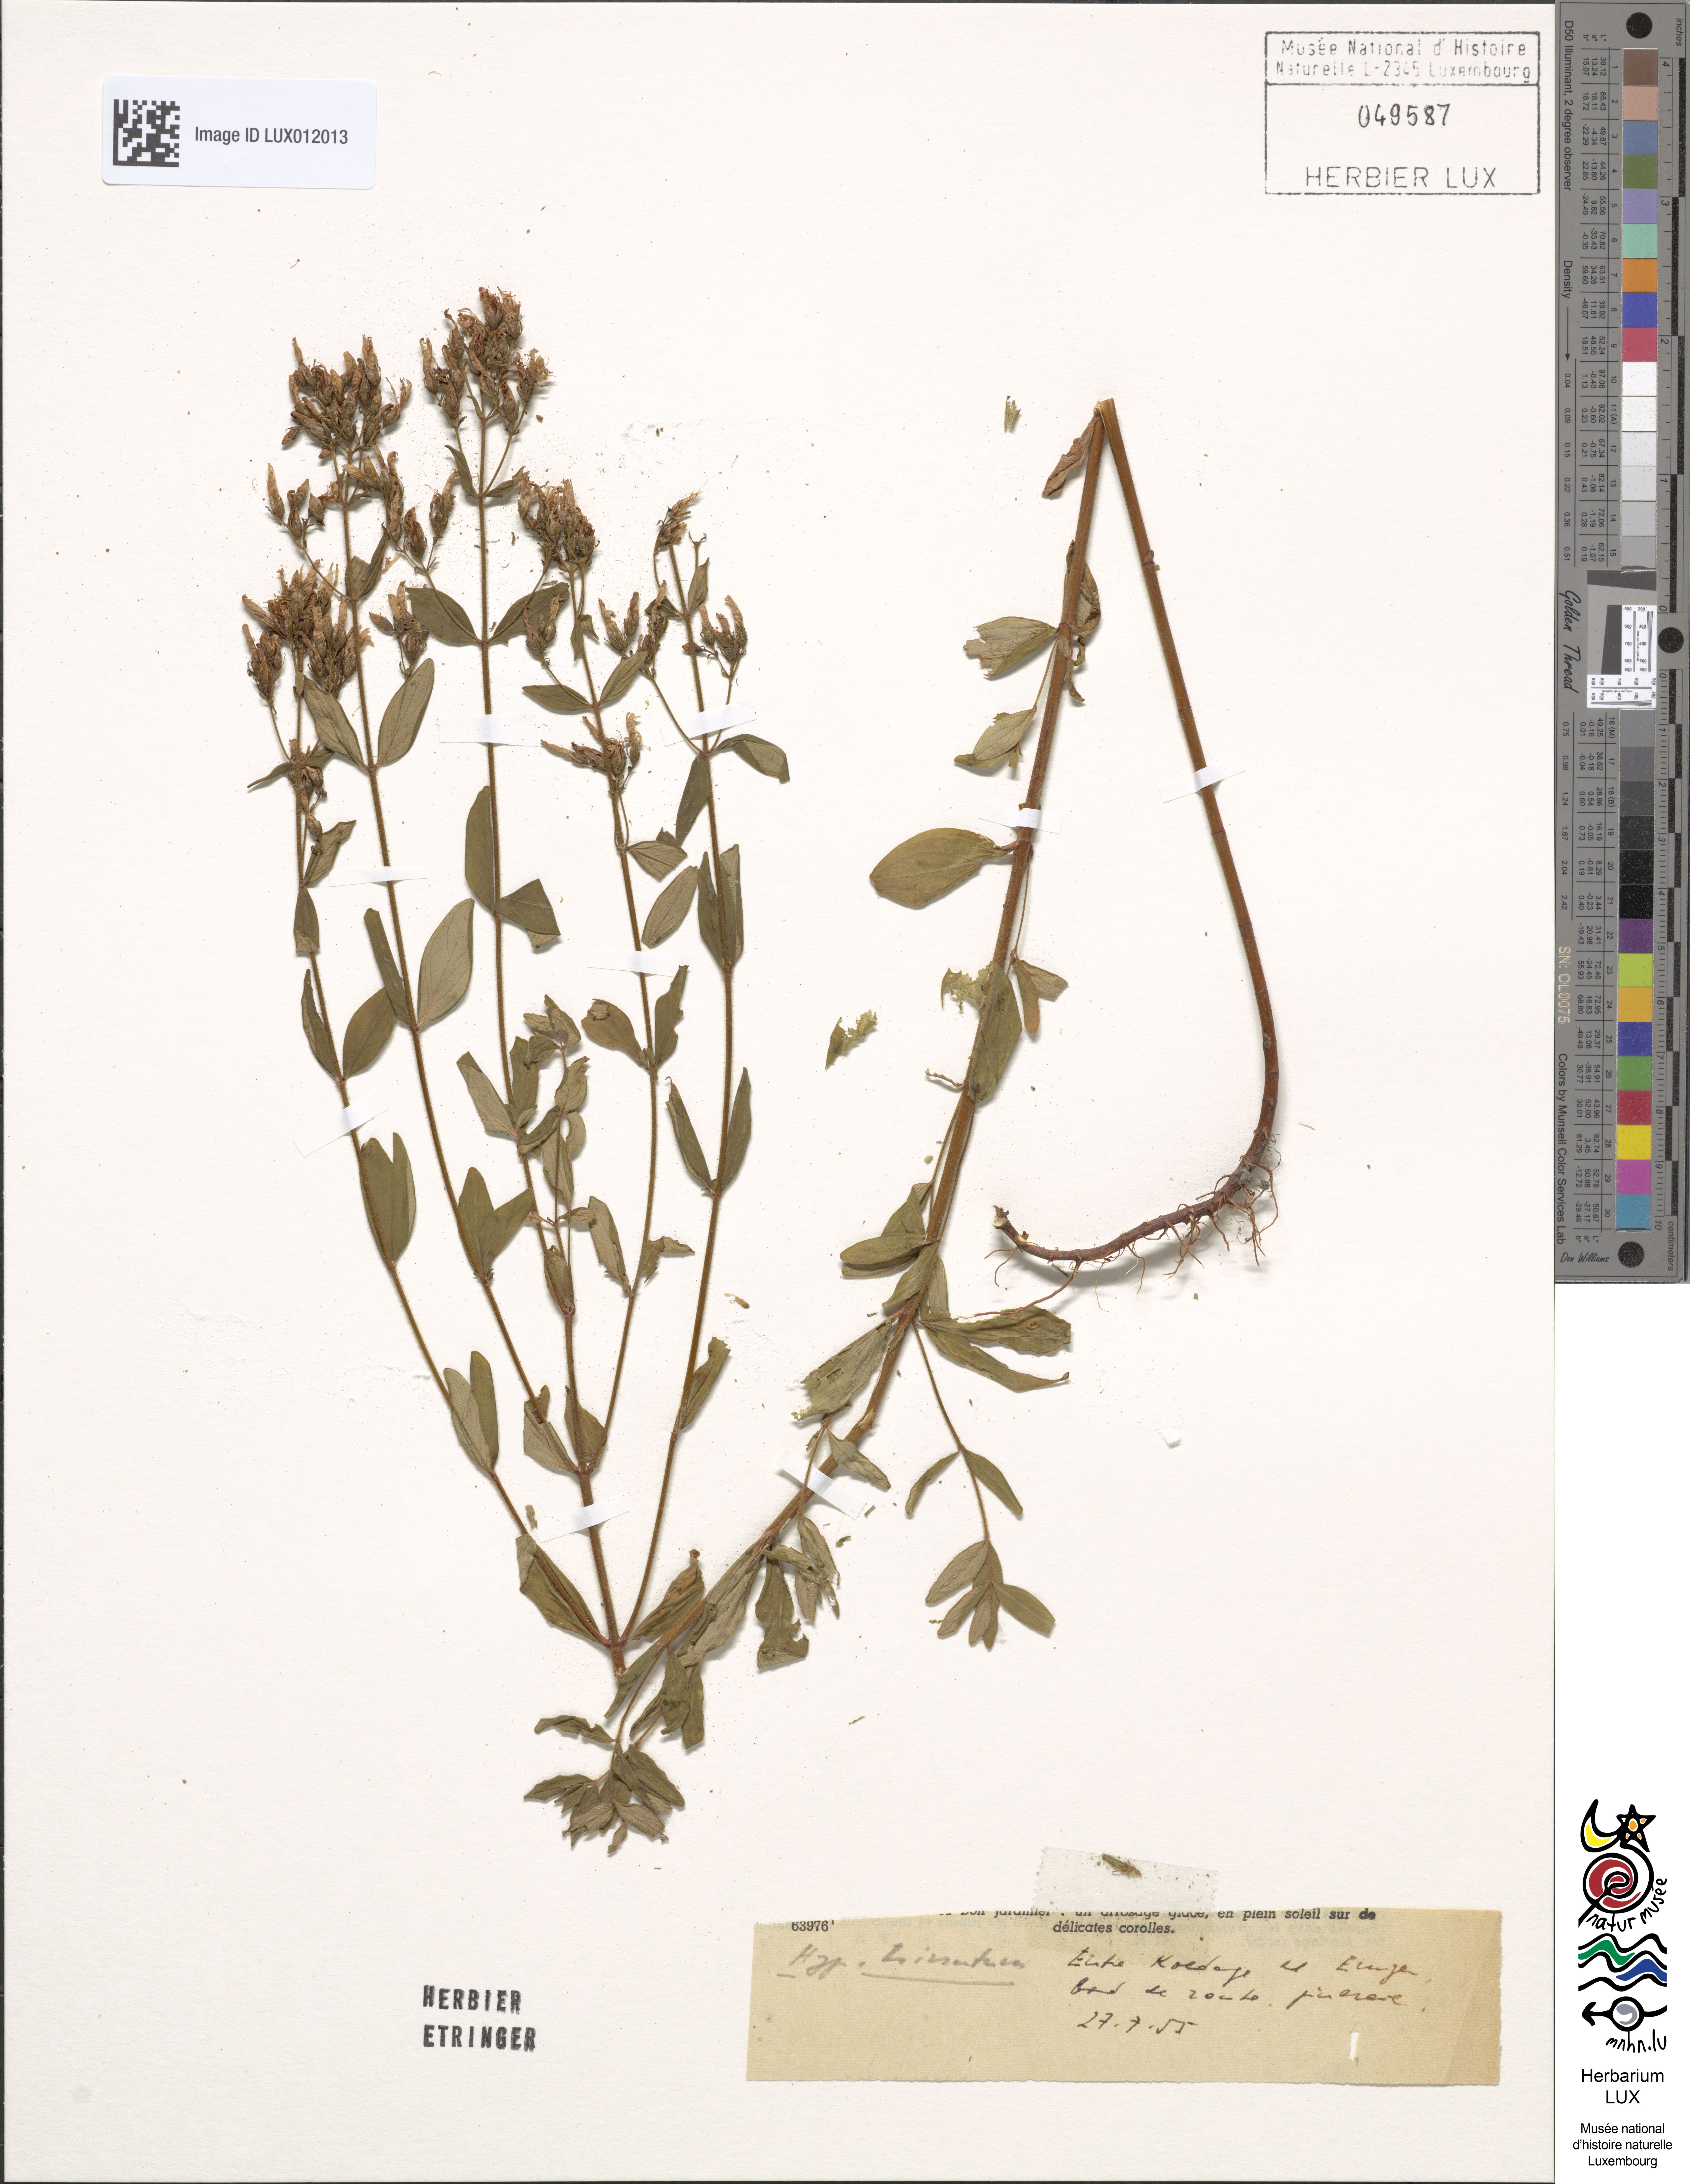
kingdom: Plantae
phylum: Tracheophyta
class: Magnoliopsida
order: Malpighiales
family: Hypericaceae
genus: Hypericum
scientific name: Hypericum hirsutum
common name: Hairy st. john's-wort
